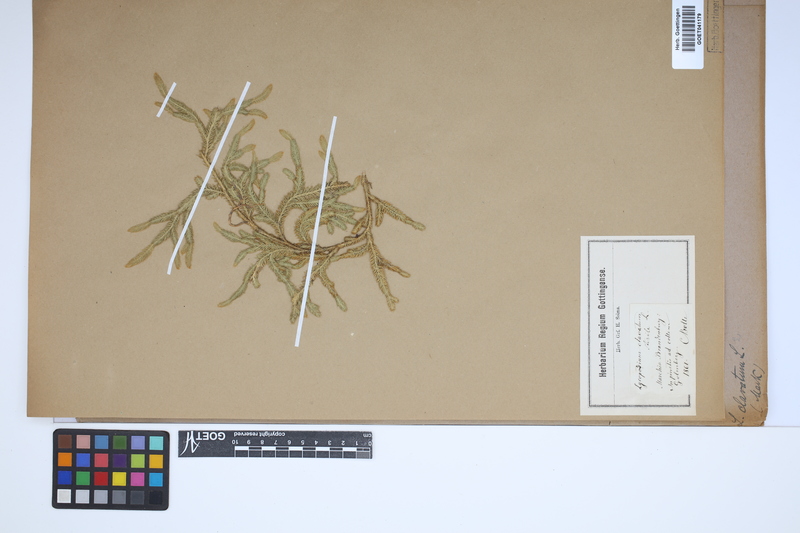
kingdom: Plantae
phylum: Tracheophyta
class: Lycopodiopsida
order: Lycopodiales
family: Lycopodiaceae
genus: Lycopodium
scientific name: Lycopodium clavatum
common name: Stag's-horn clubmoss
